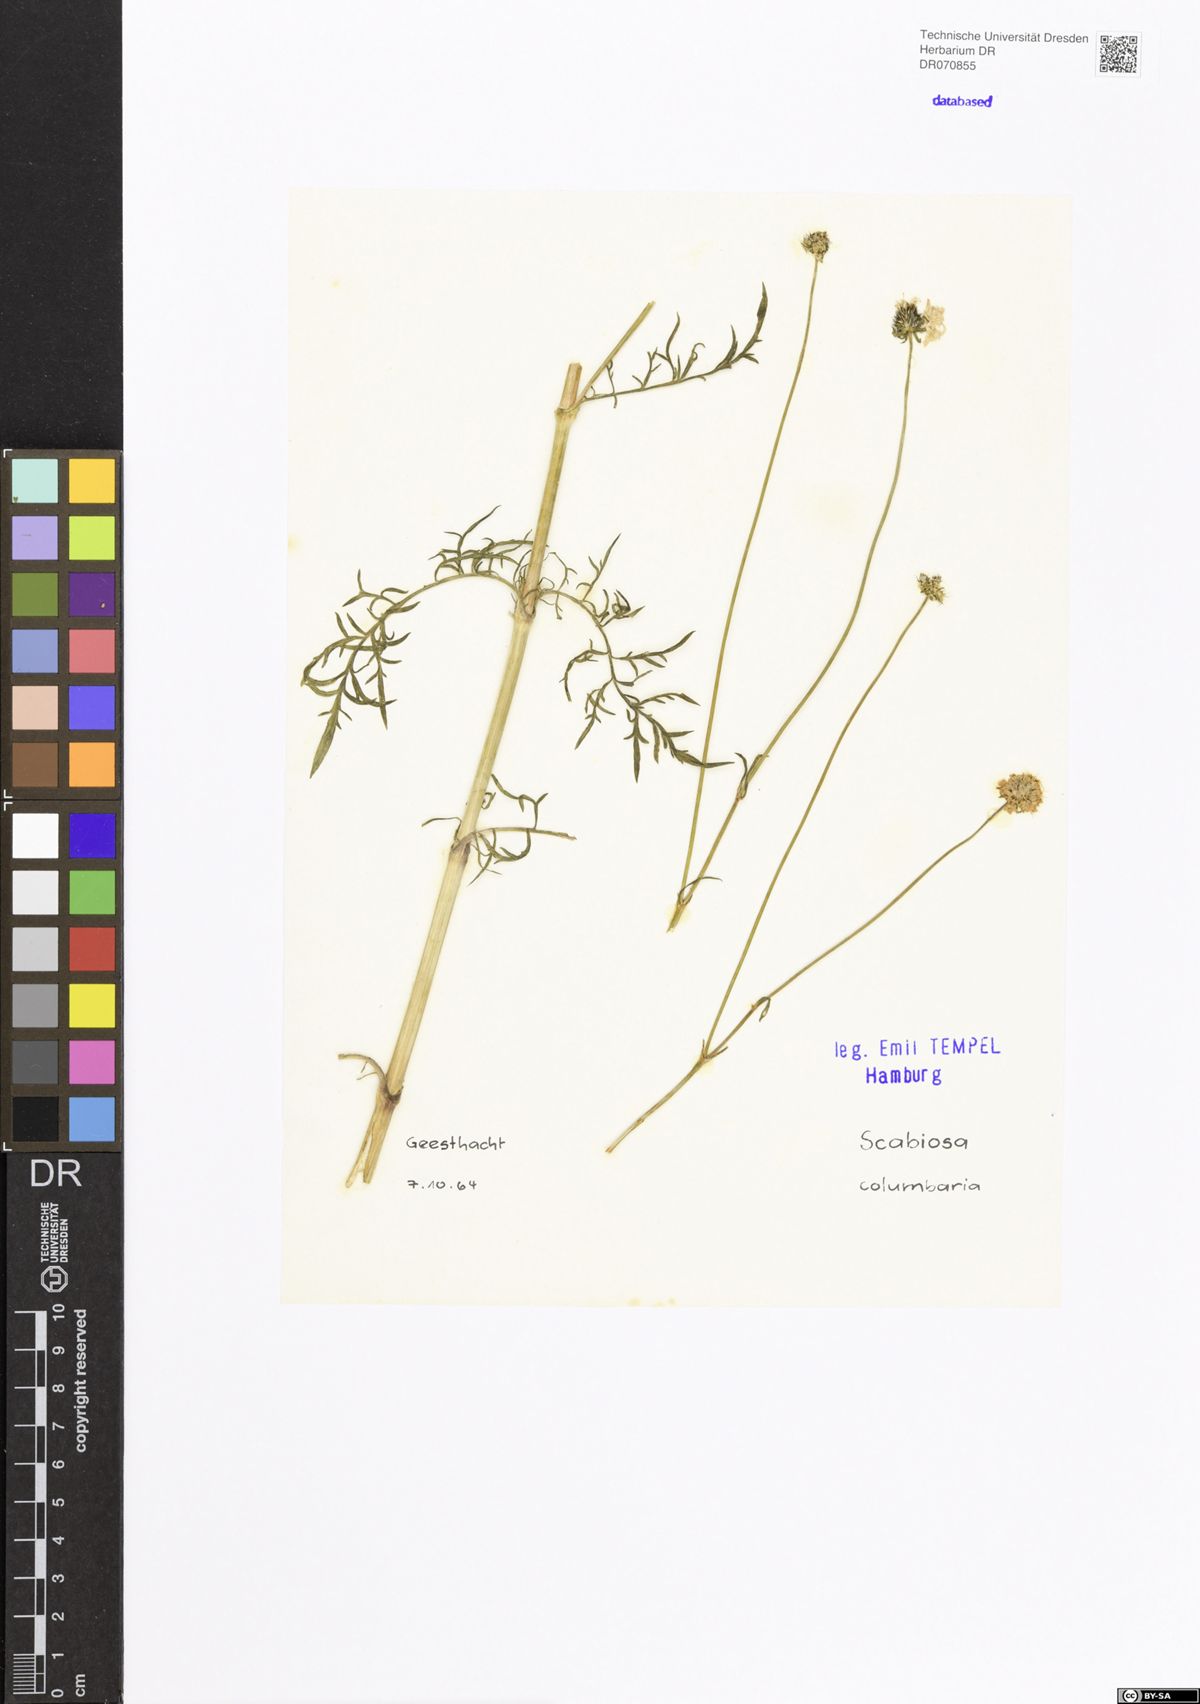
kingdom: Plantae
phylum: Tracheophyta
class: Magnoliopsida
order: Dipsacales
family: Caprifoliaceae
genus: Scabiosa
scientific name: Scabiosa columbaria
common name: Small scabious
